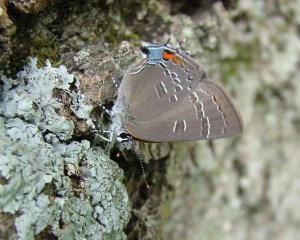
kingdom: Animalia
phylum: Arthropoda
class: Insecta
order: Lepidoptera
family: Lycaenidae
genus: Satyrium
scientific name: Satyrium calanus
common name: Banded Hairstreak
